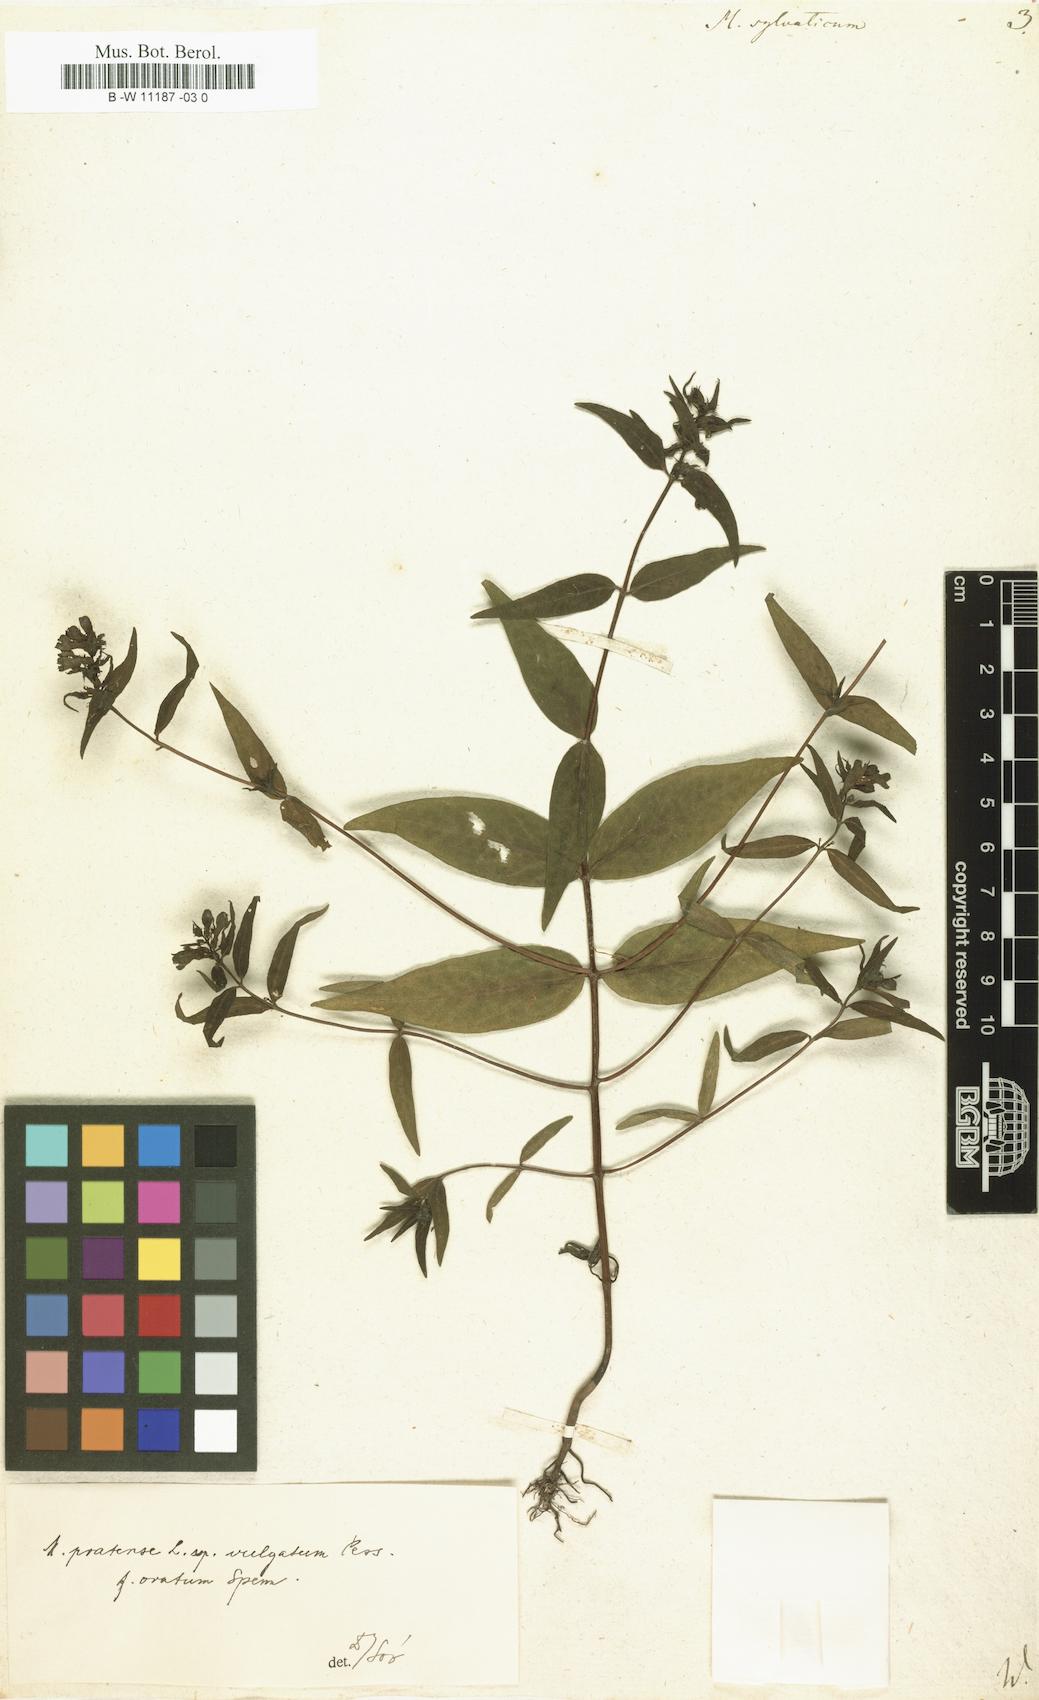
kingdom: Plantae
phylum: Tracheophyta
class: Magnoliopsida
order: Lamiales
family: Orobanchaceae
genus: Melampyrum
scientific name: Melampyrum pratense
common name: Common cow-wheat
